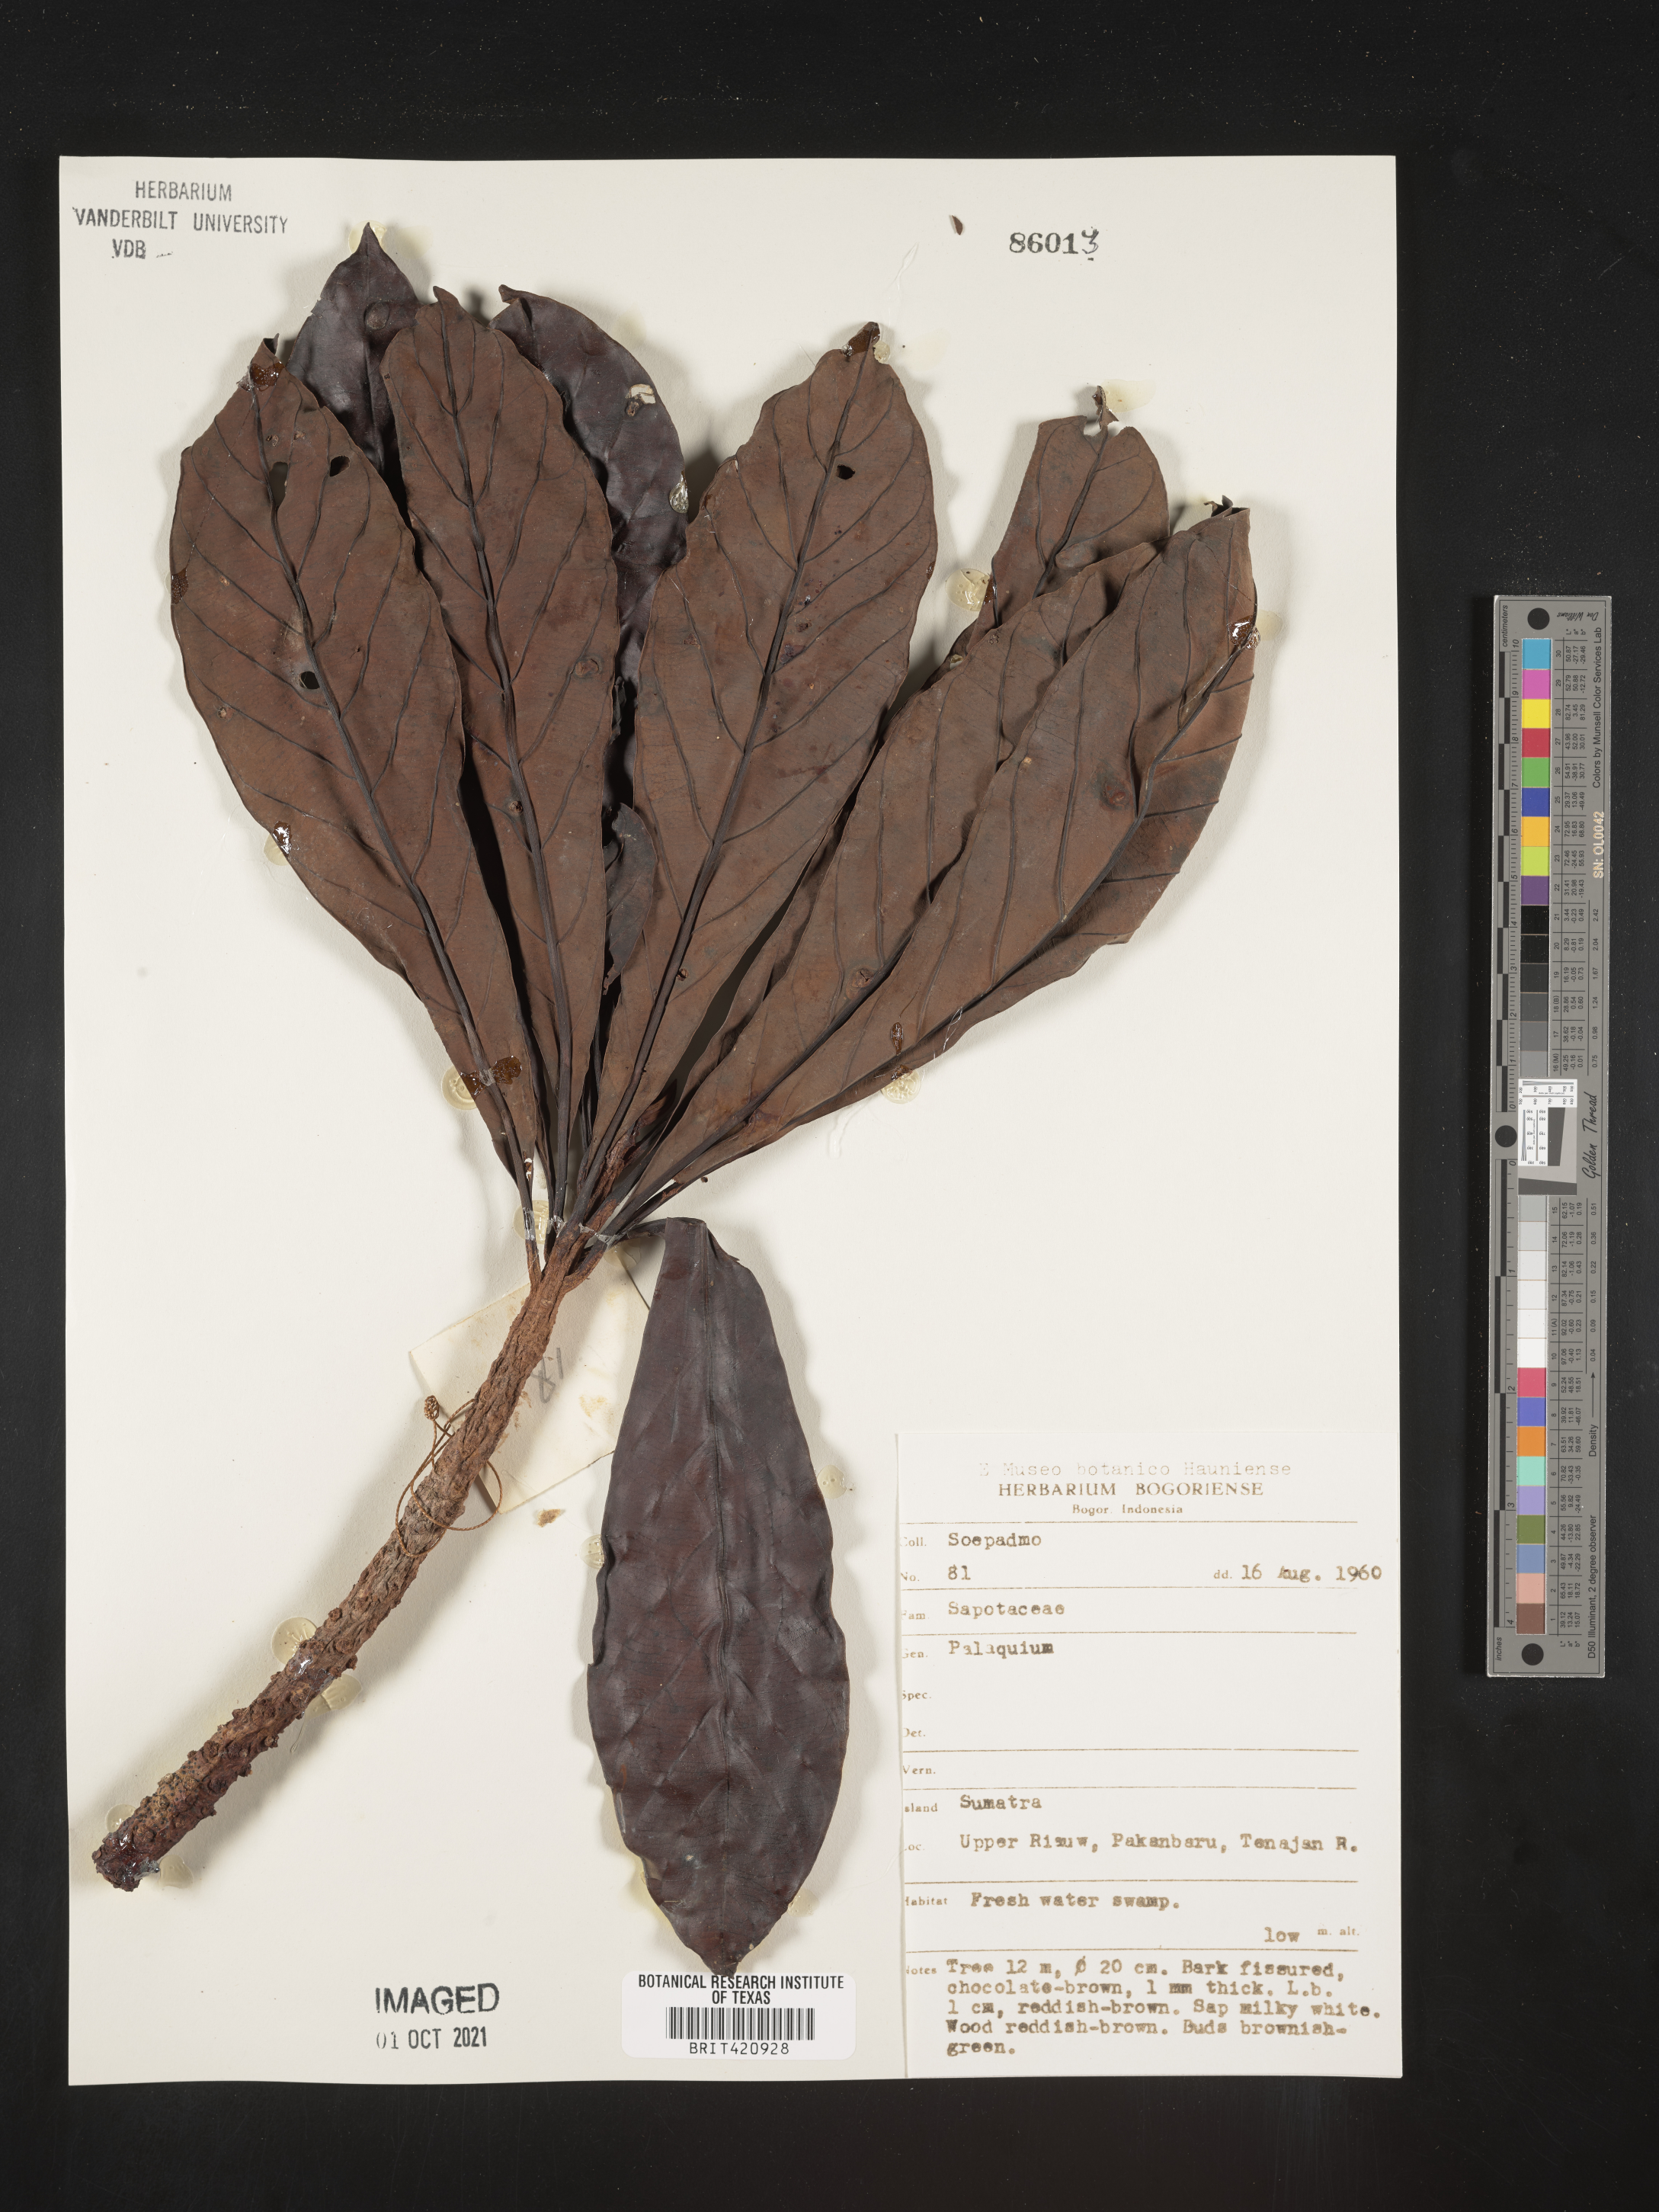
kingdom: Plantae
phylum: Tracheophyta
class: Magnoliopsida
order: Ericales
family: Sapotaceae
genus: Palaquium
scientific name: Palaquium
